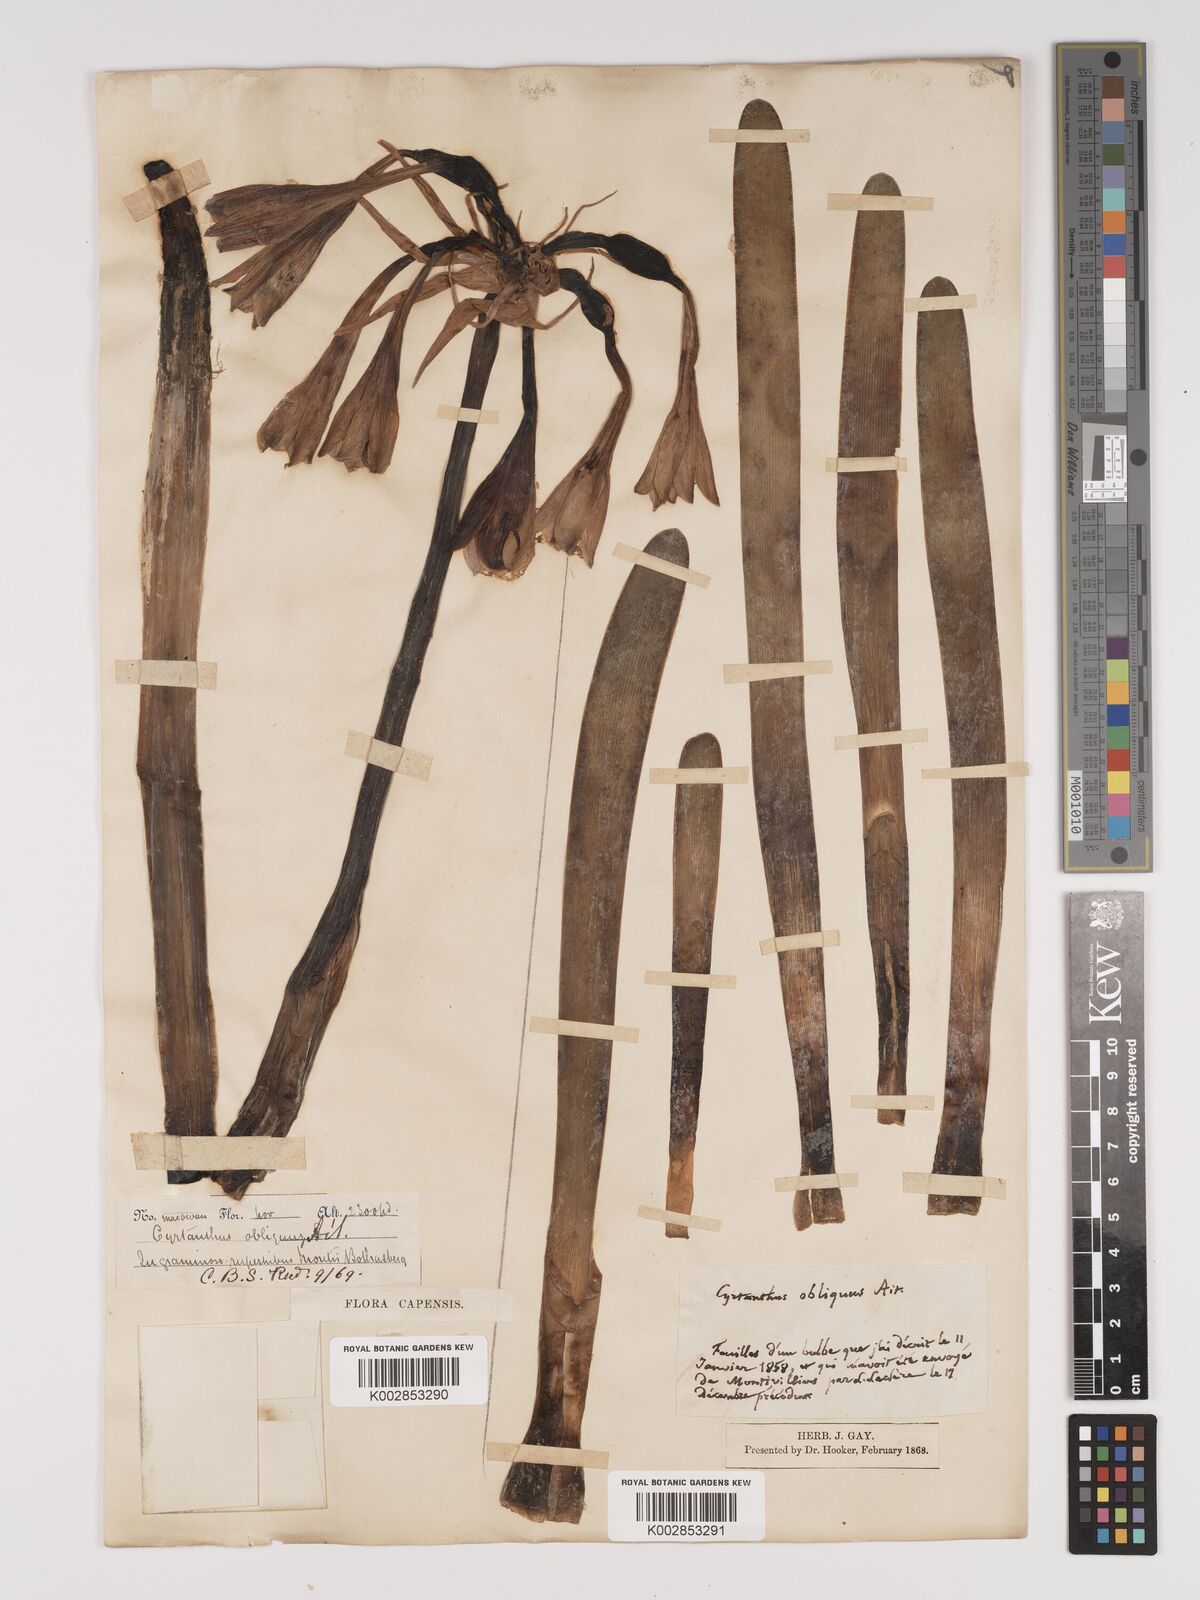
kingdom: Plantae
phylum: Tracheophyta
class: Liliopsida
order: Asparagales
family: Amaryllidaceae
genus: Cyrtanthus
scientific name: Cyrtanthus obliquus
